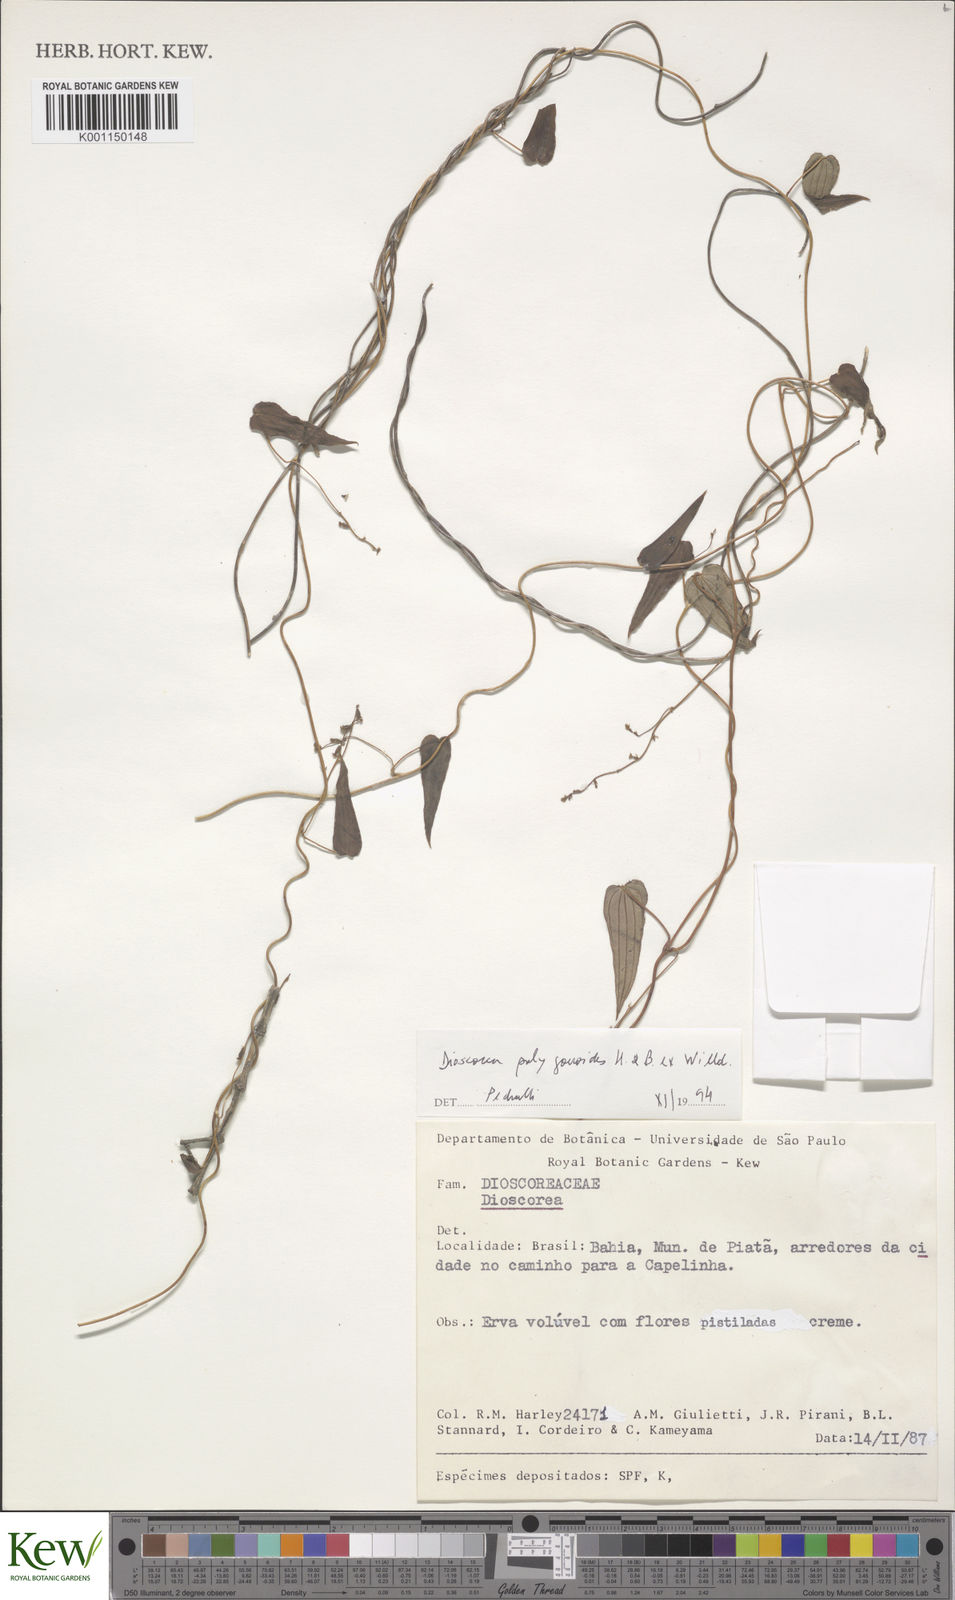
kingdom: Plantae
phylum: Tracheophyta
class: Liliopsida
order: Dioscoreales
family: Dioscoreaceae
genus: Dioscorea
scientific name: Dioscorea
